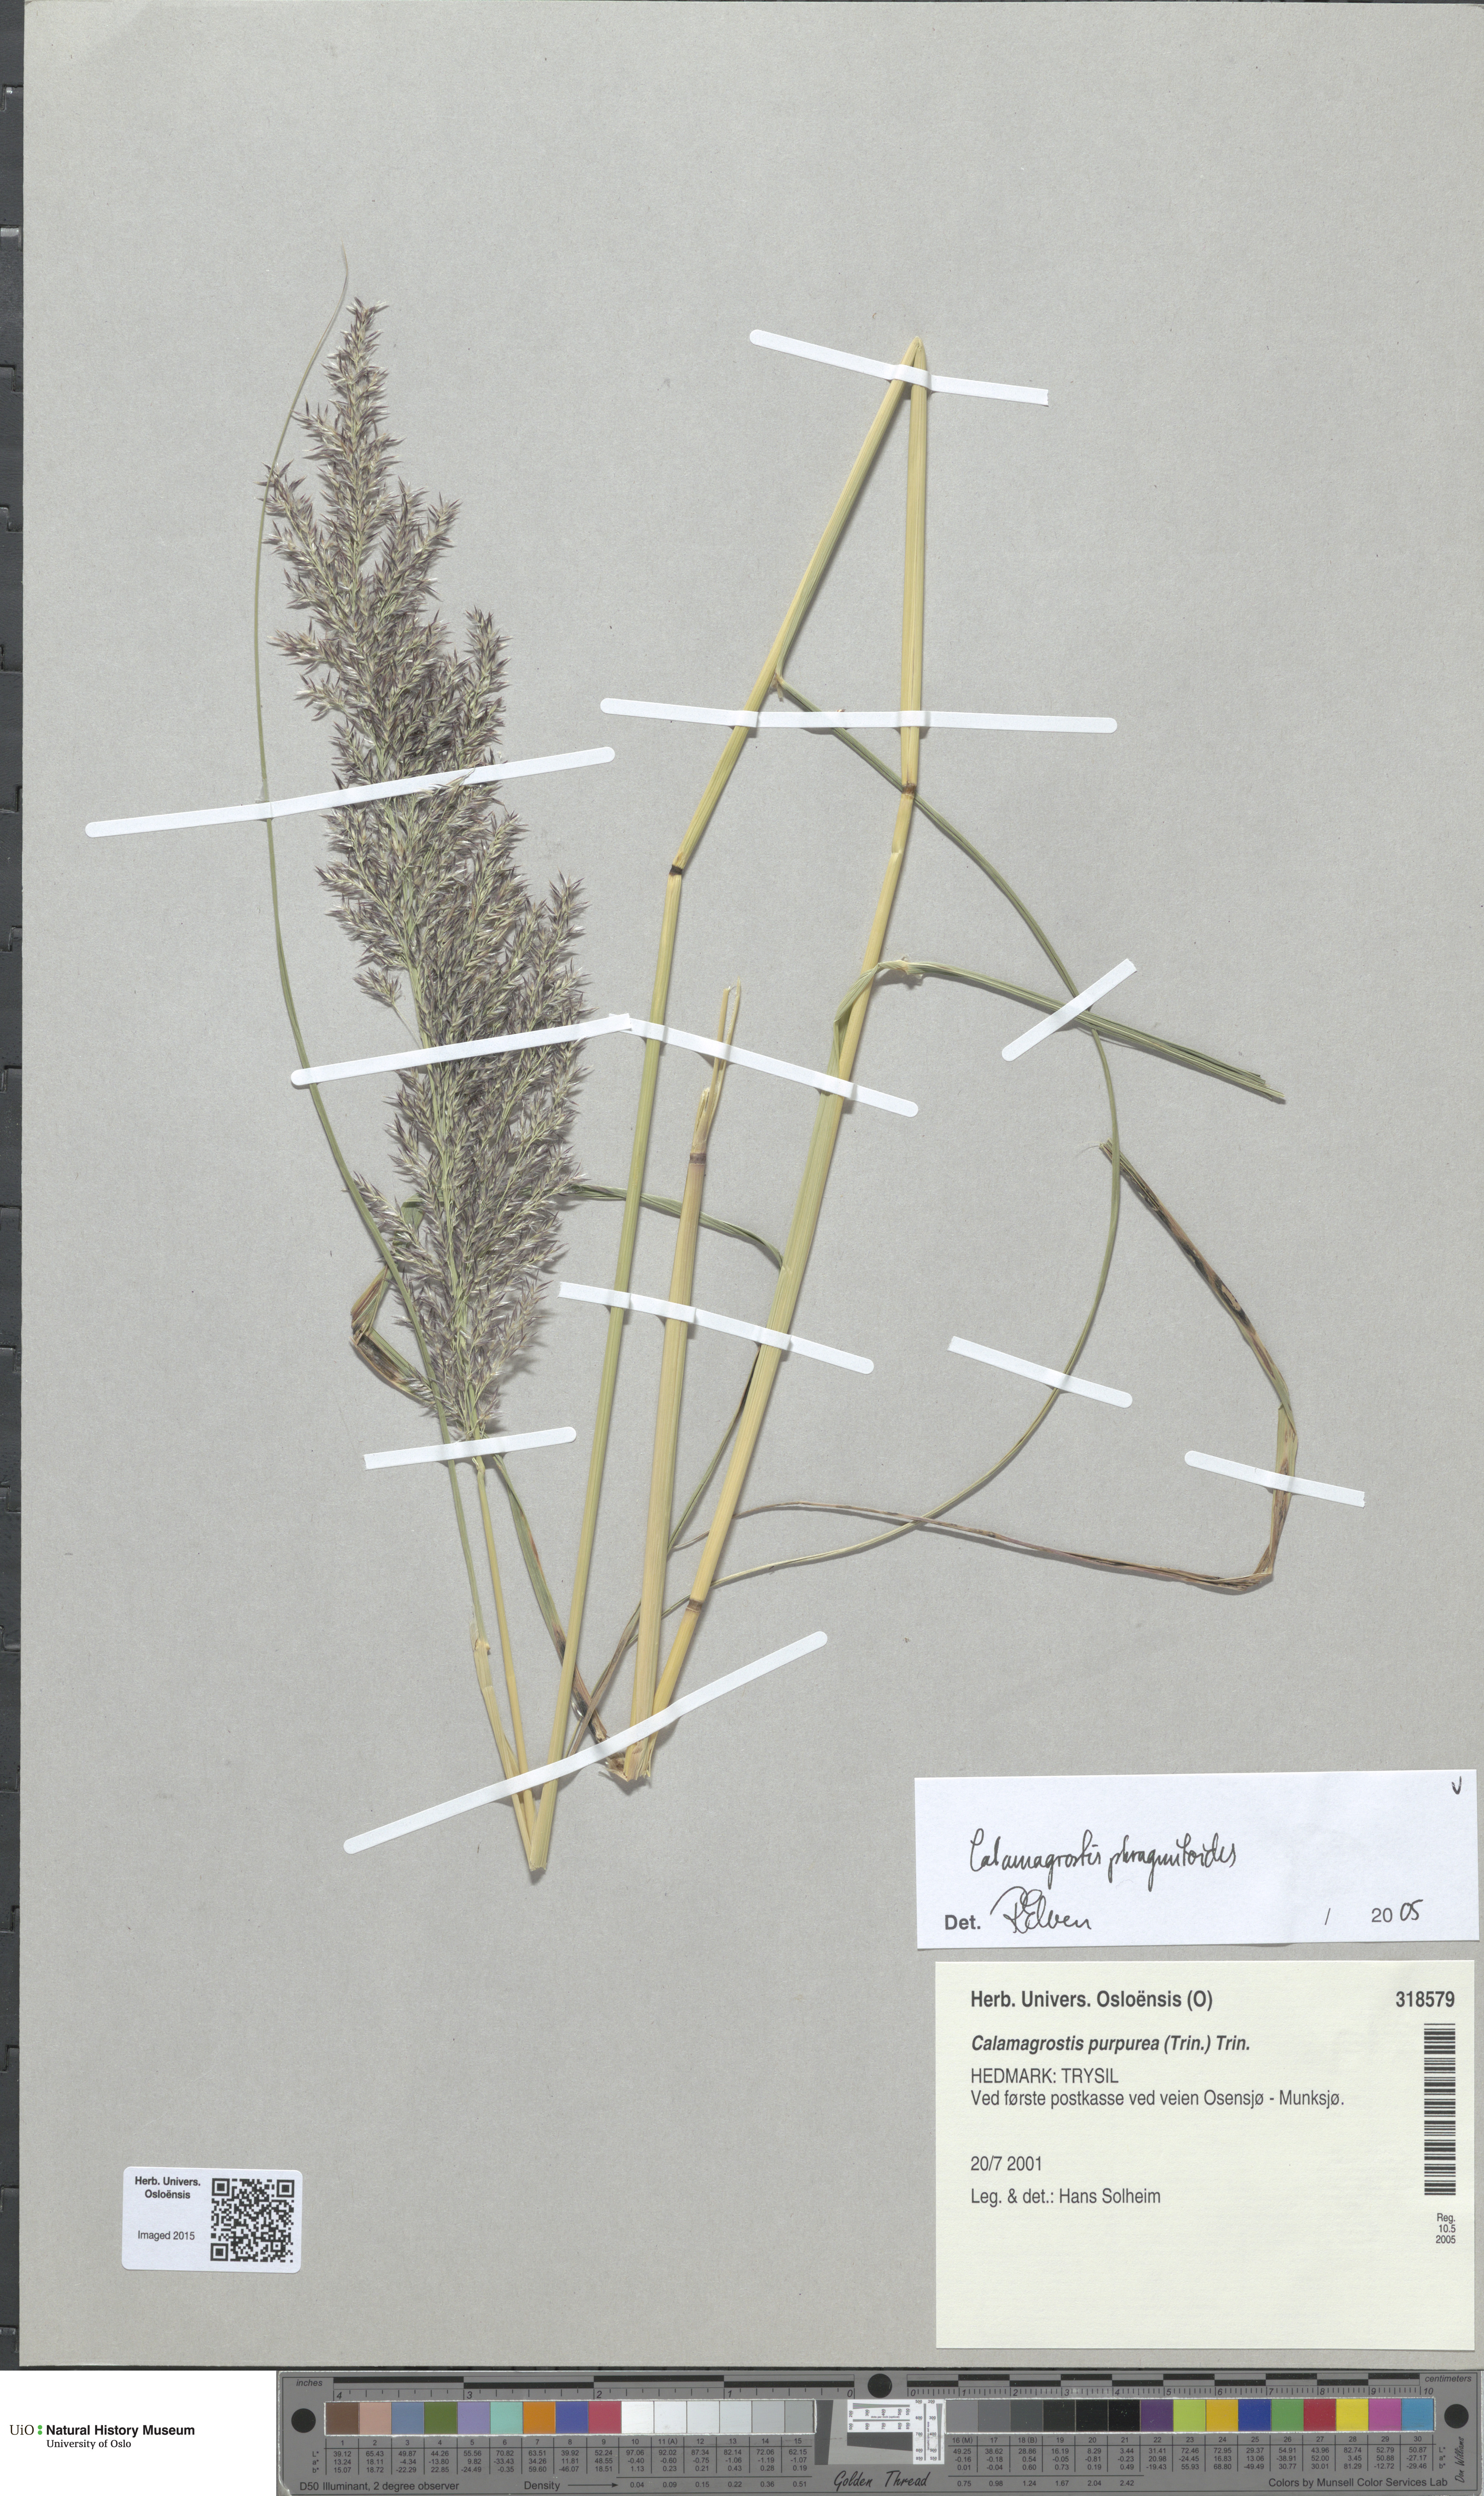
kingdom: Plantae
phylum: Tracheophyta
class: Liliopsida
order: Poales
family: Poaceae
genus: Calamagrostis
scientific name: Calamagrostis purpurea
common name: Scandinavian small-reed
